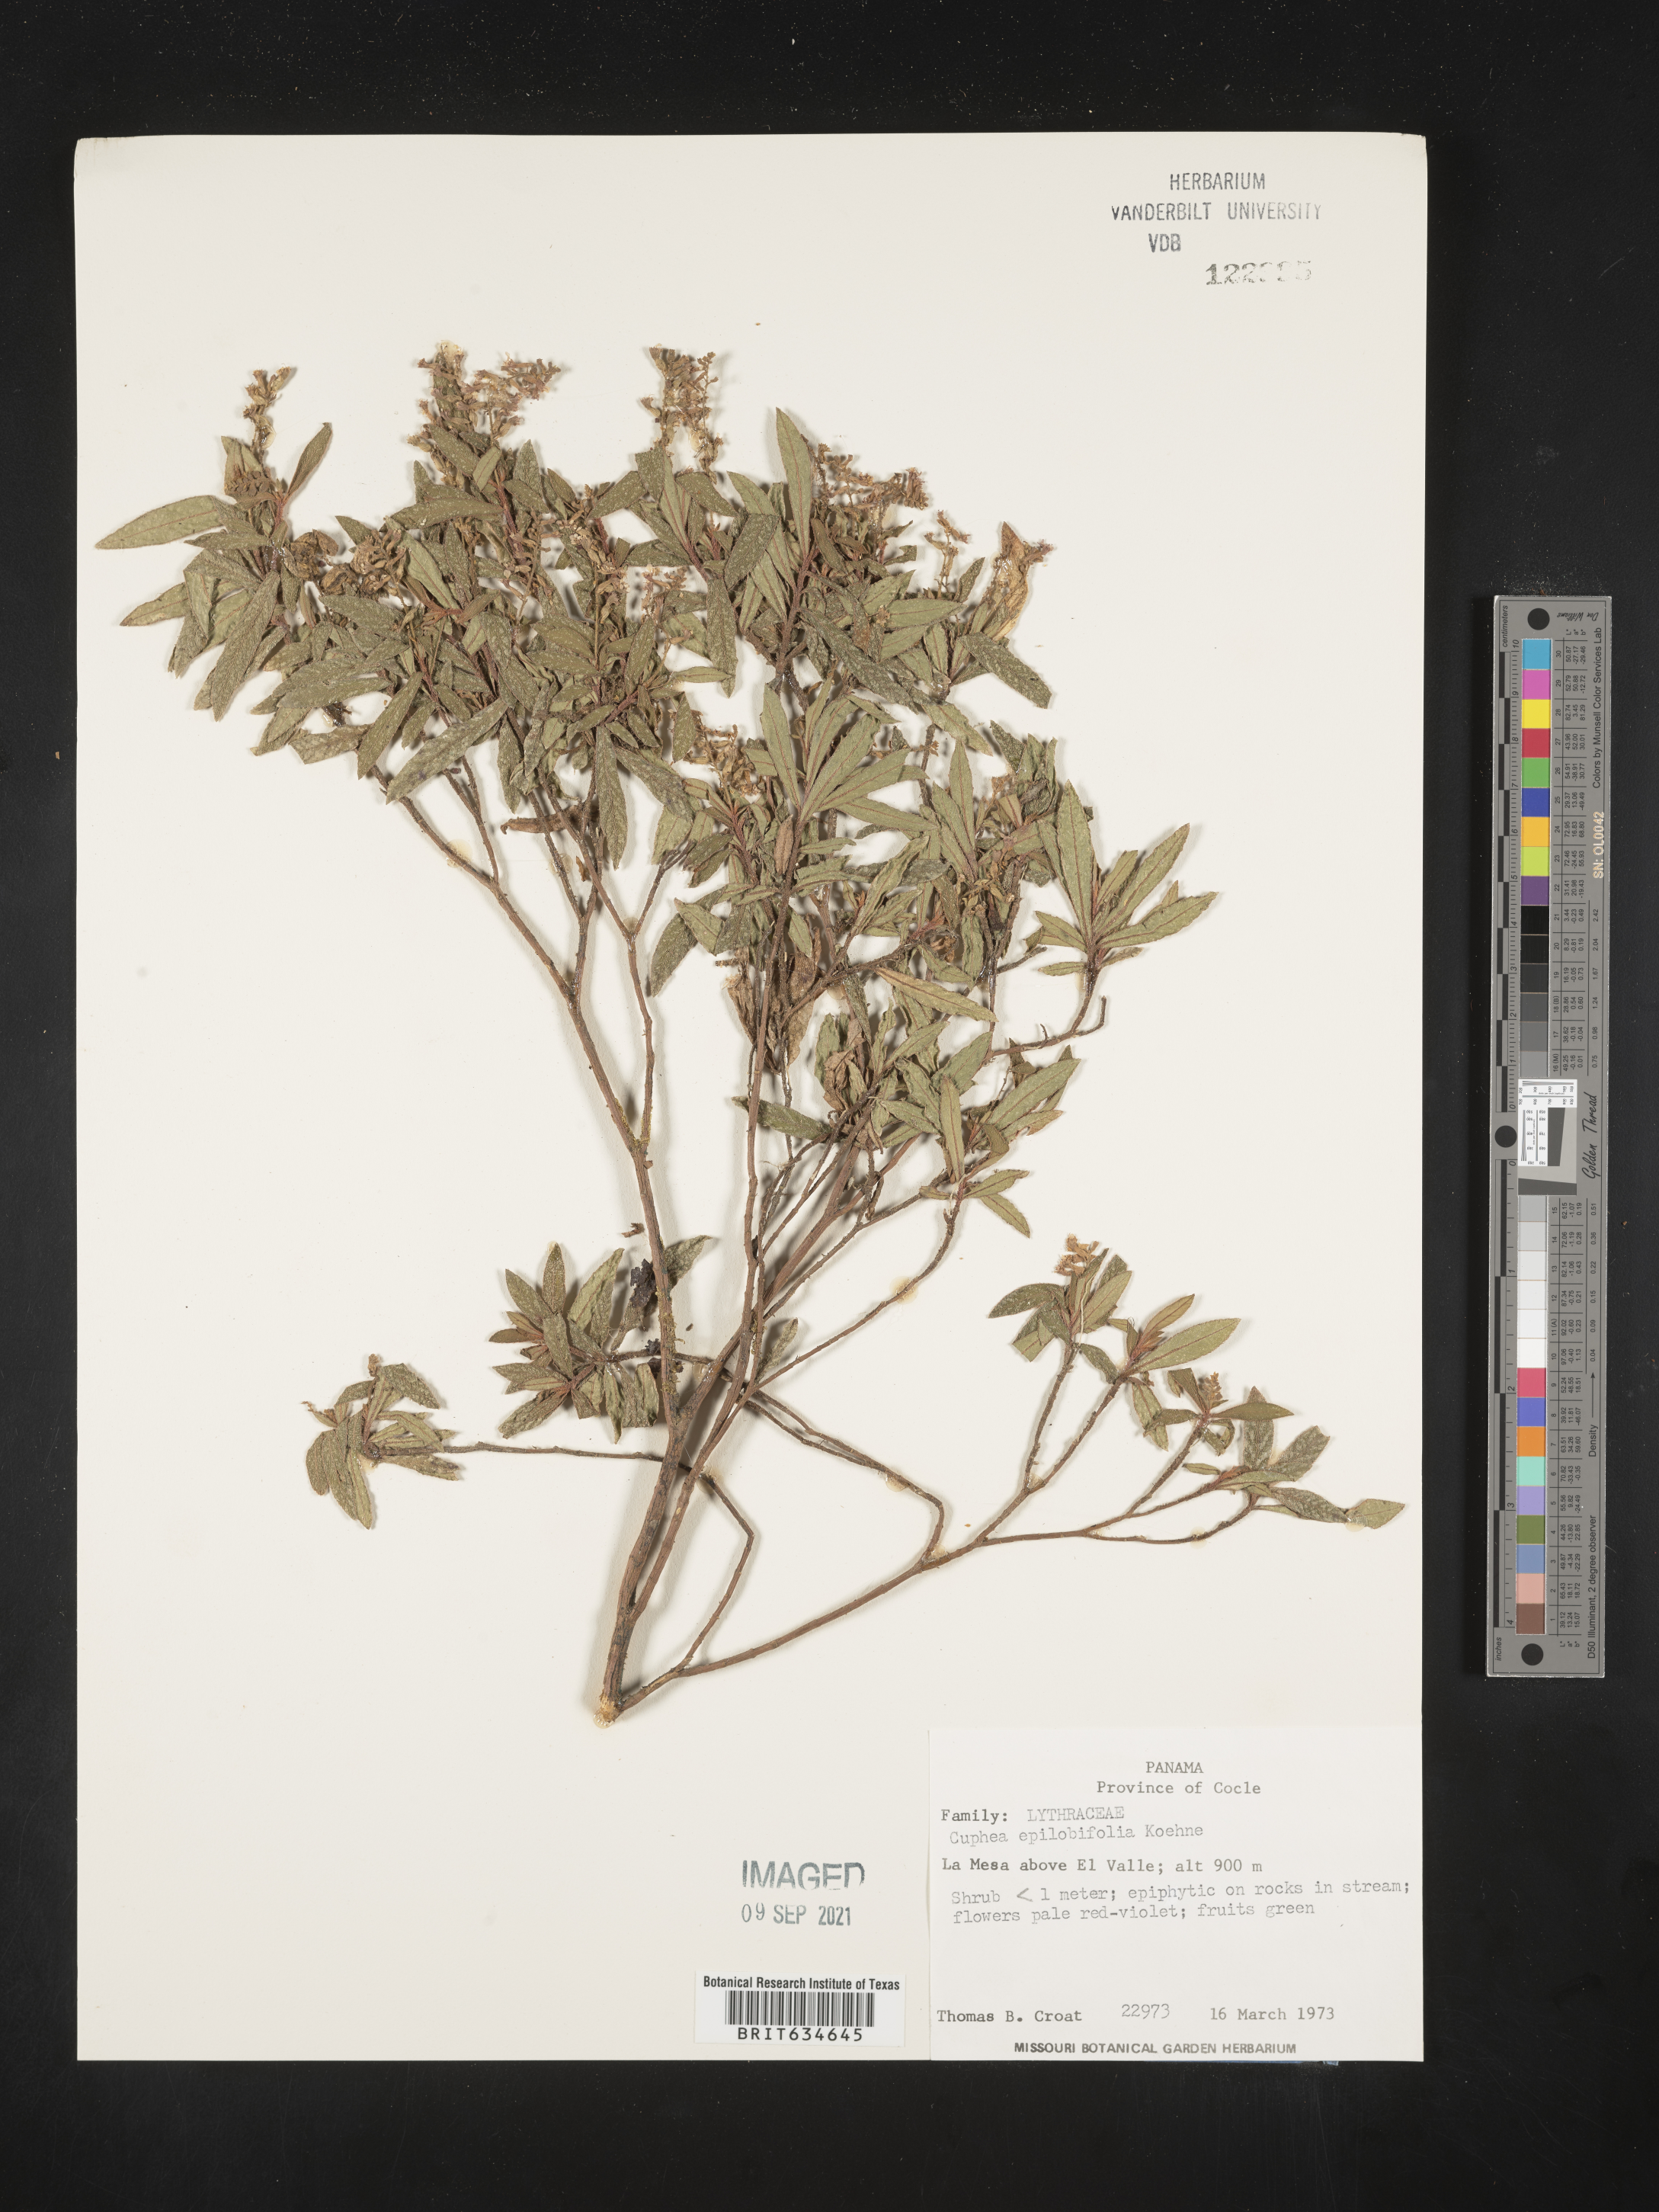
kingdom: Plantae
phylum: Tracheophyta
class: Magnoliopsida
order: Myrtales
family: Lythraceae
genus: Cuphea
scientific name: Cuphea
